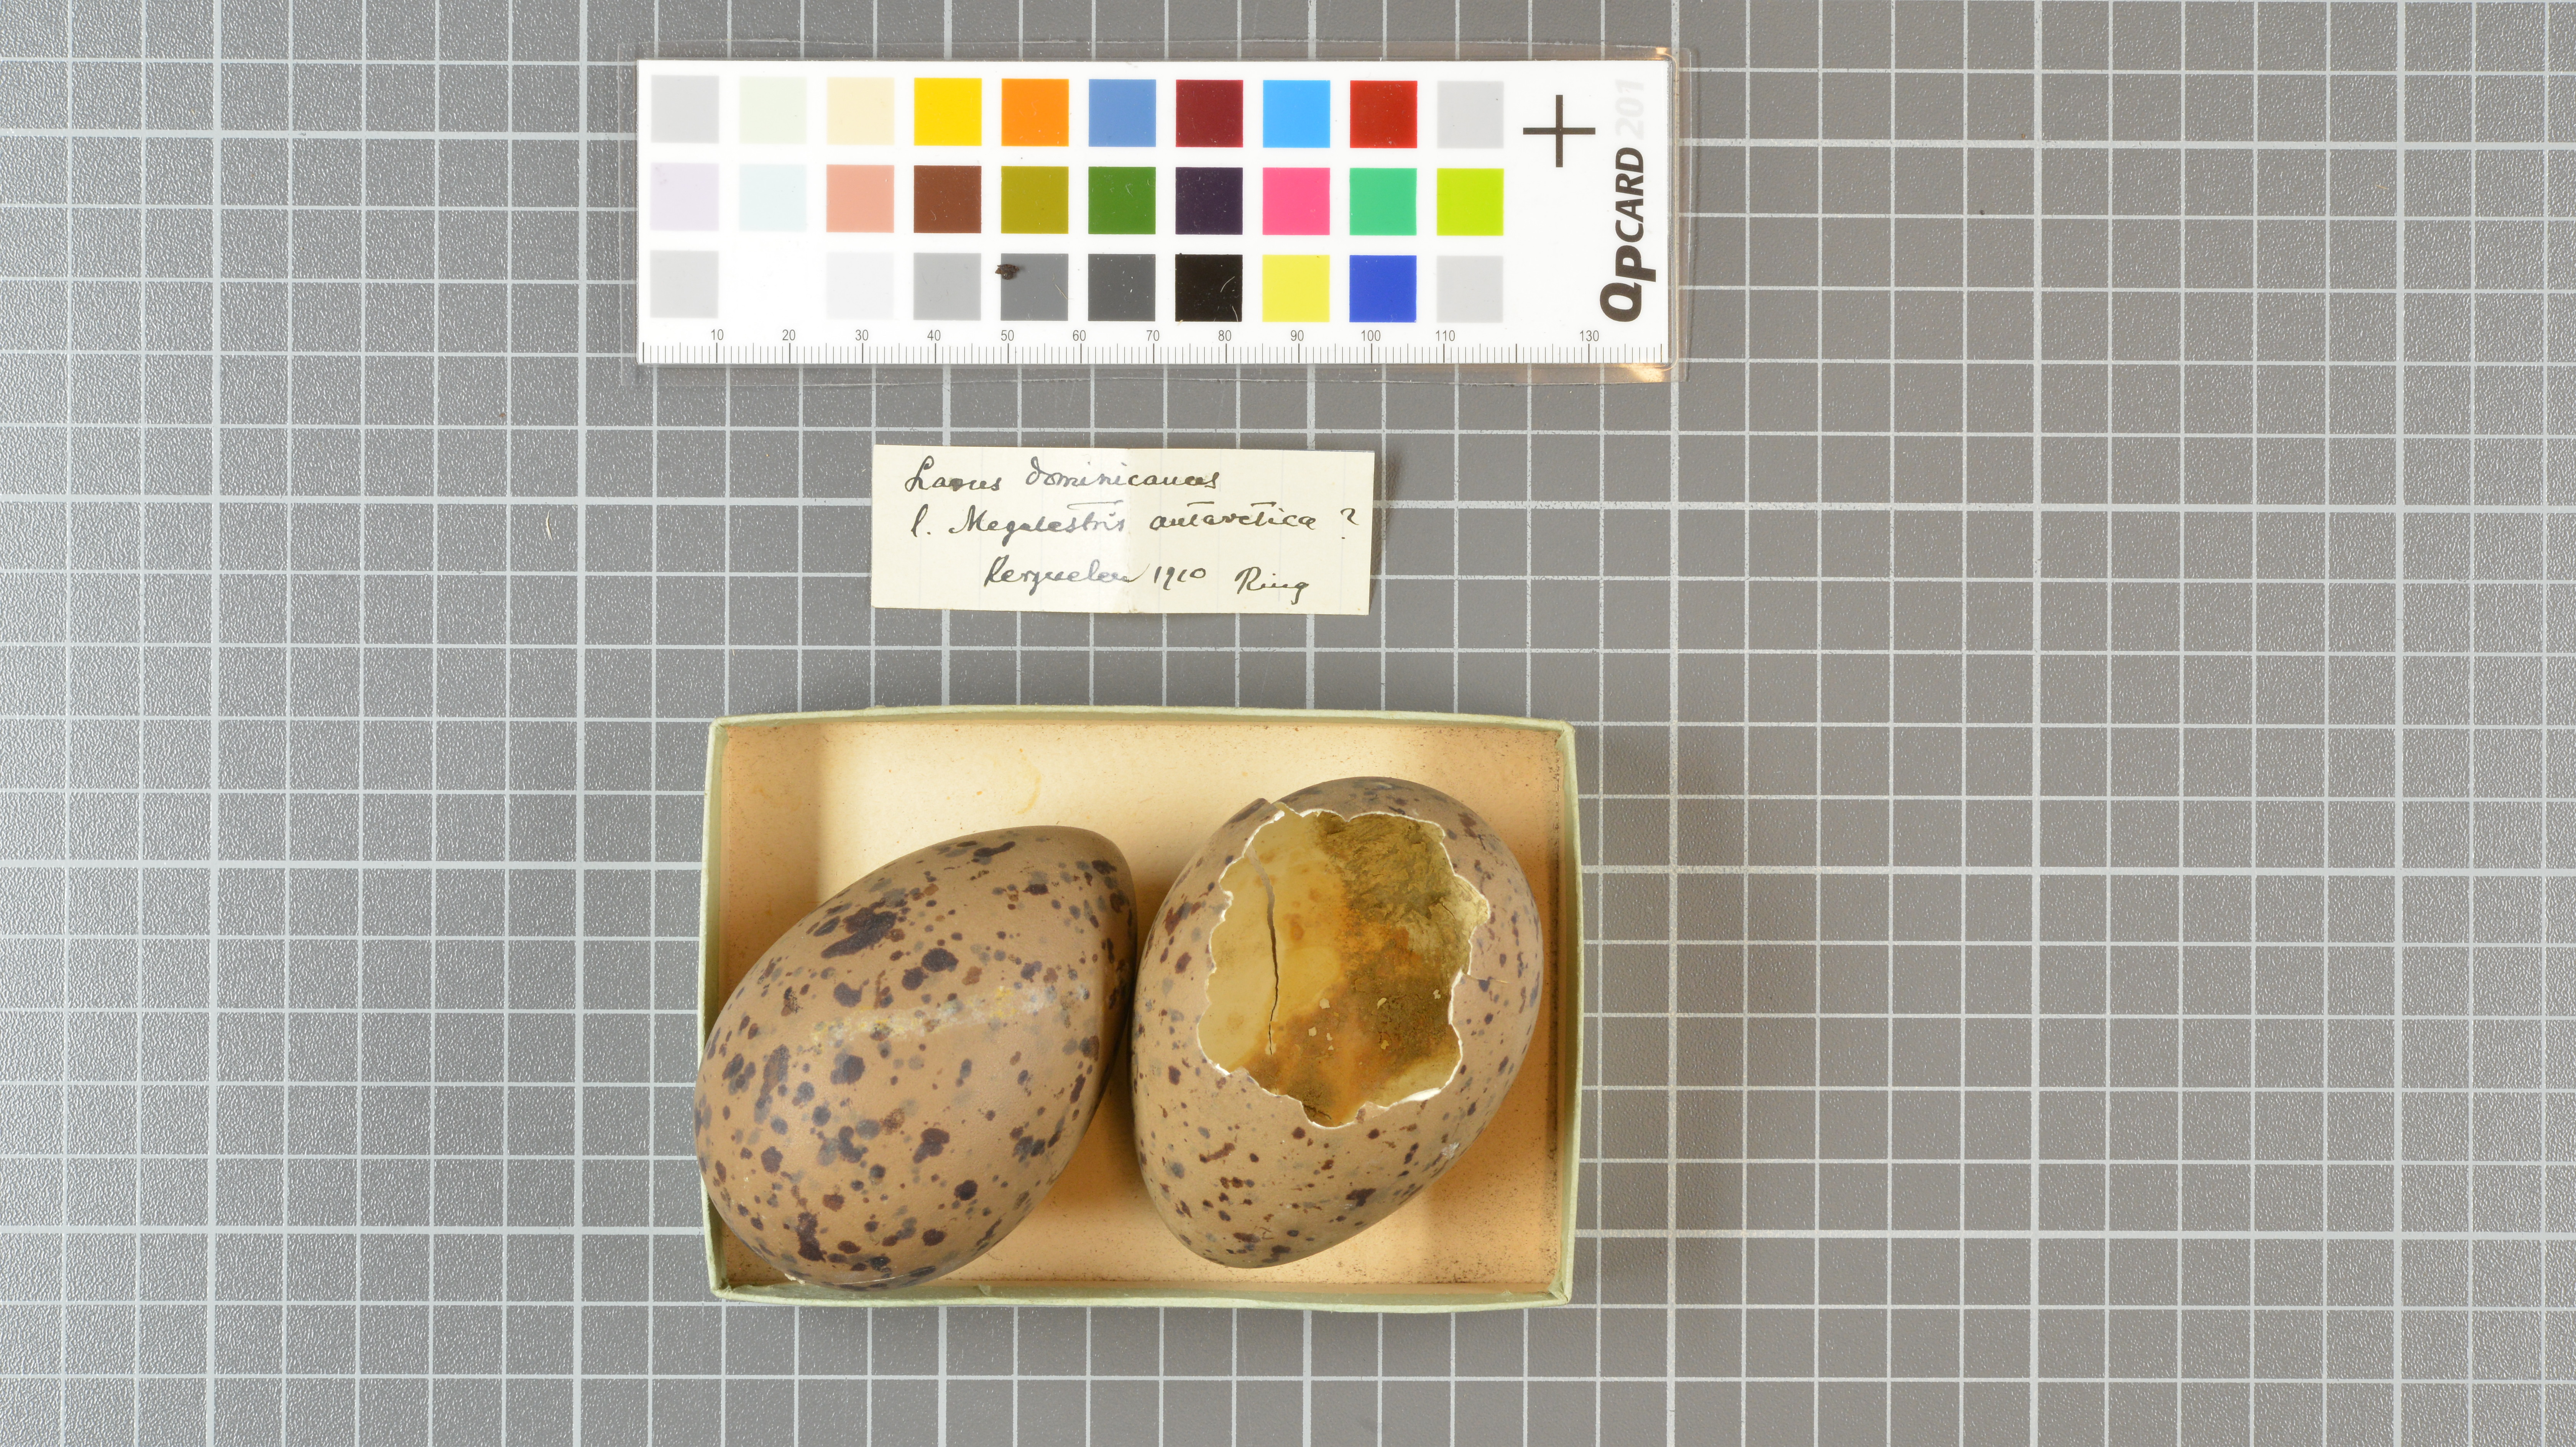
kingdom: Animalia
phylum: Chordata
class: Aves
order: Charadriiformes
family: Laridae
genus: Larus
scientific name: Larus dominicanus
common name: Kelp gull
